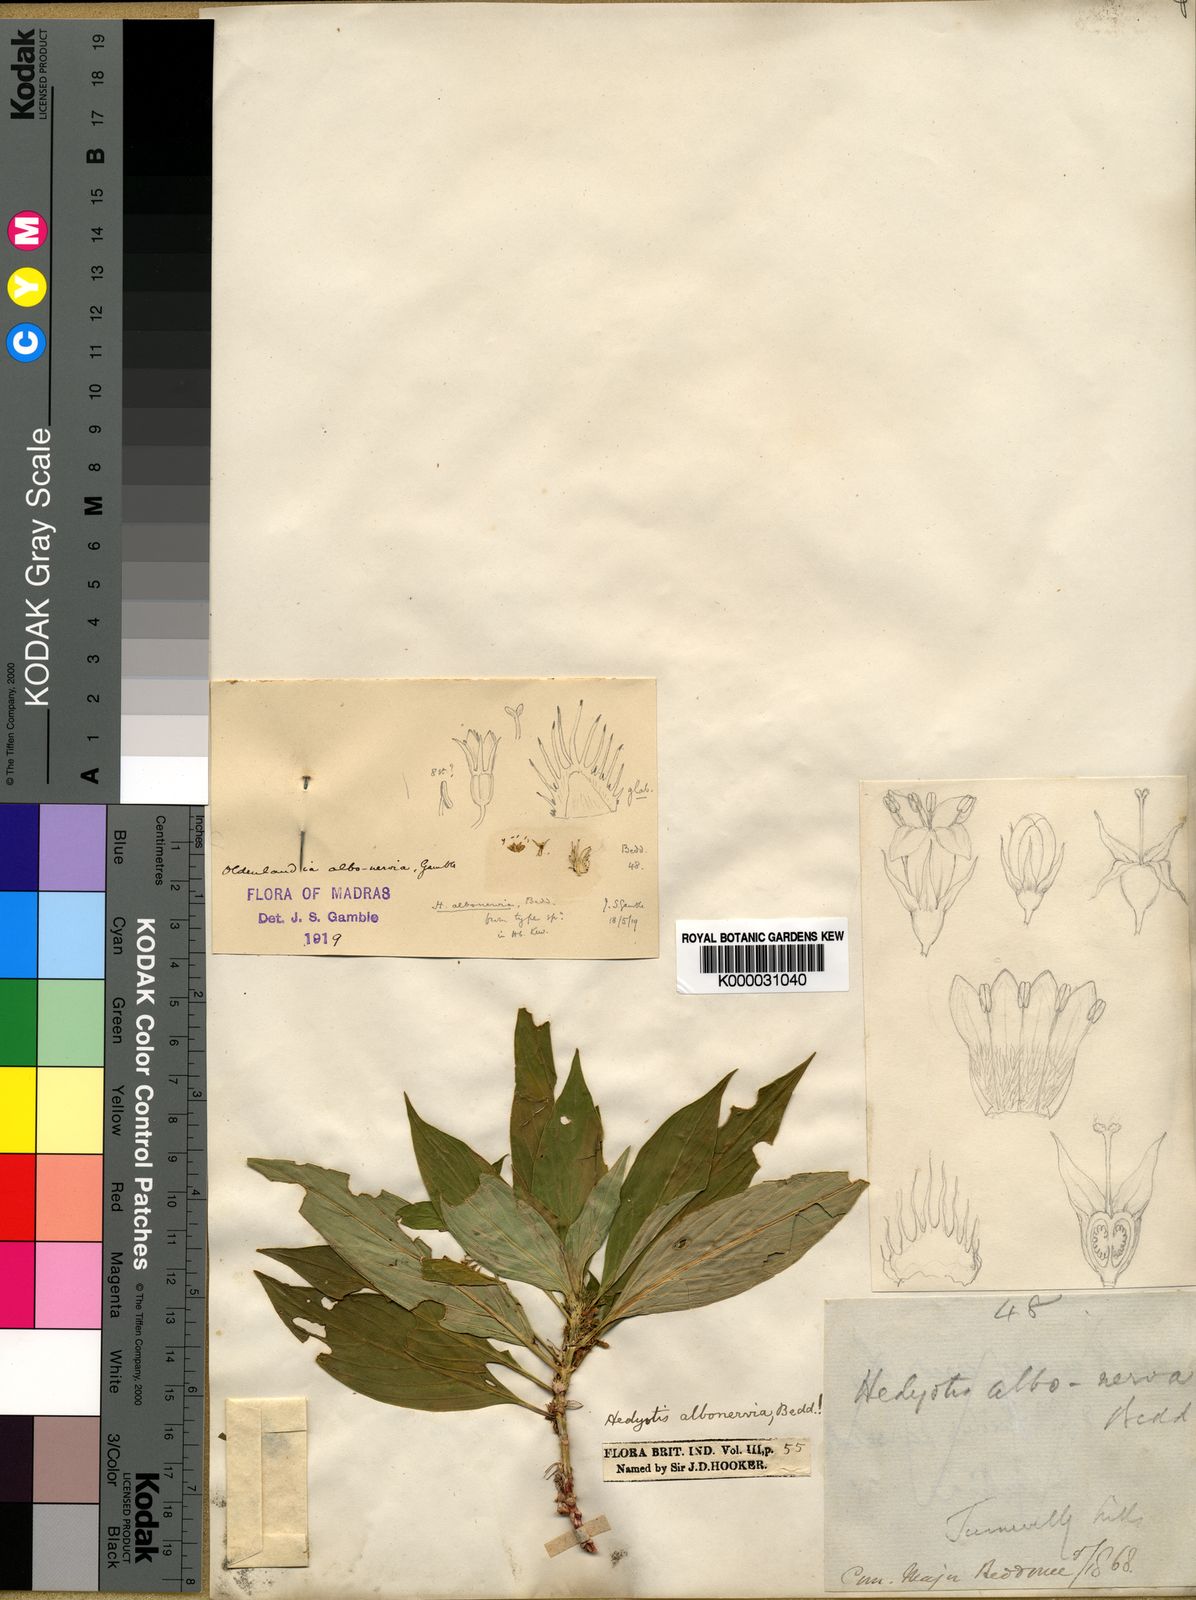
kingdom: Plantae
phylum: Tracheophyta
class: Magnoliopsida
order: Gentianales
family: Rubiaceae
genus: Hedyotis
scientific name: Hedyotis albonerva
